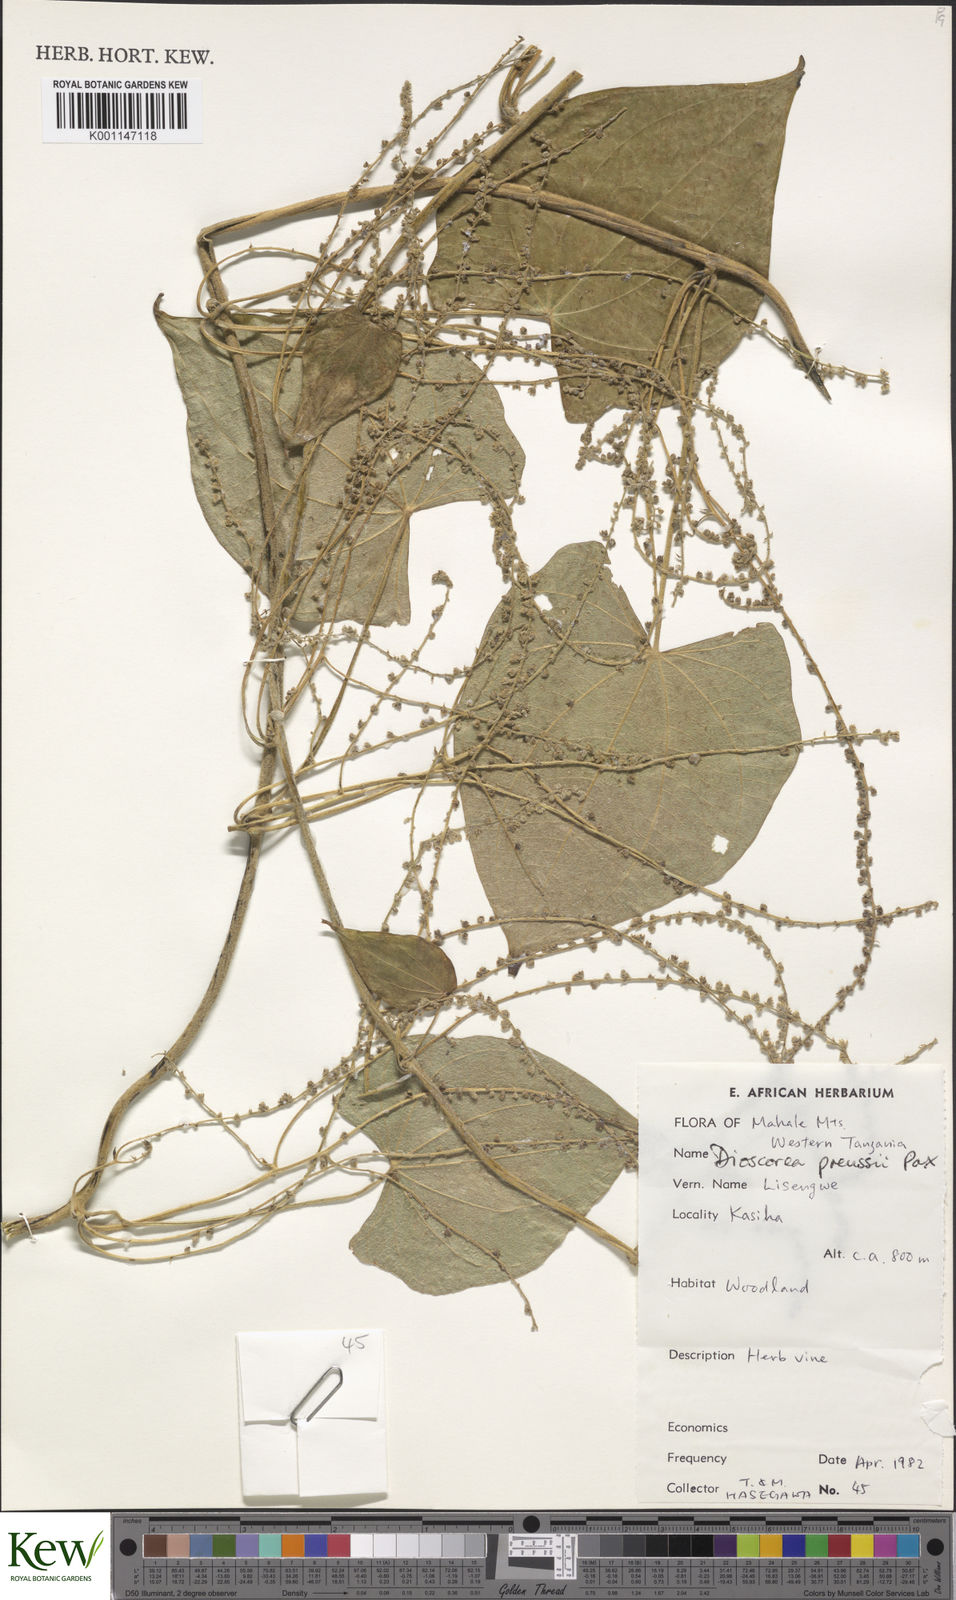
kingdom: Plantae
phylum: Tracheophyta
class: Liliopsida
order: Dioscoreales
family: Dioscoreaceae
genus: Dioscorea
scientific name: Dioscorea preussii
